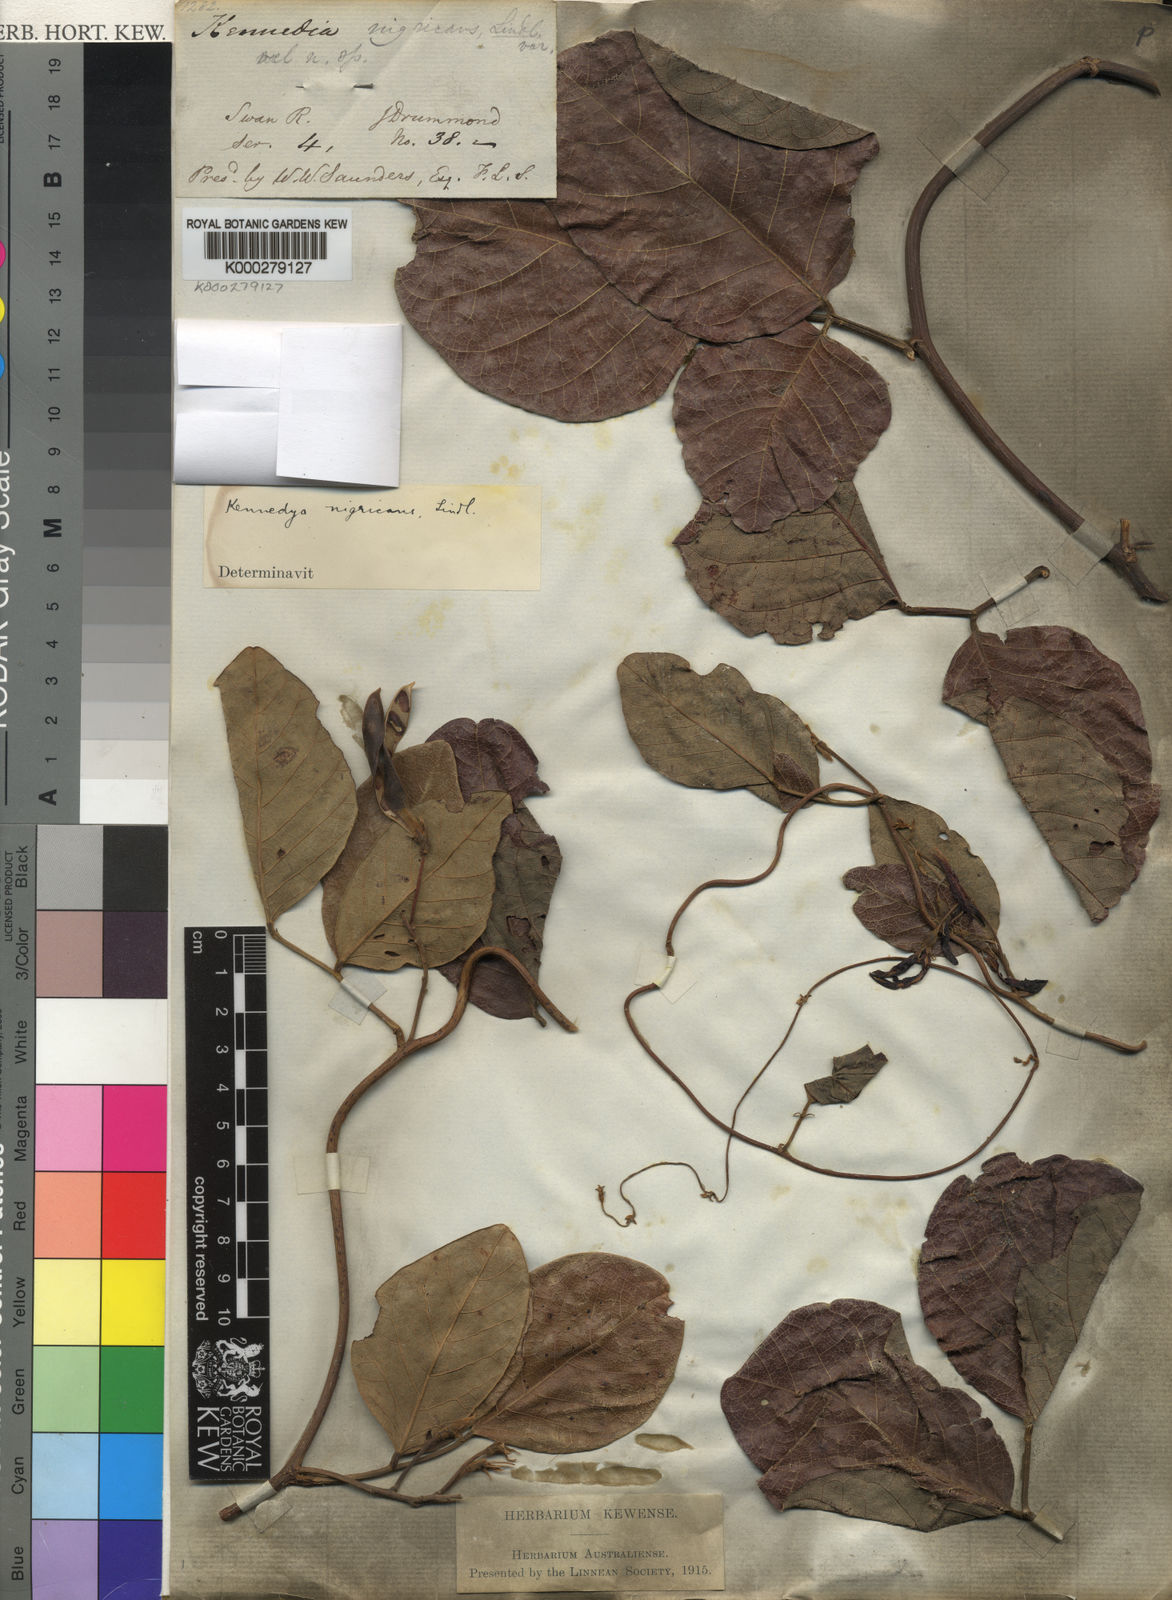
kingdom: Plantae
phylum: Tracheophyta
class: Magnoliopsida
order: Fabales
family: Fabaceae
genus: Kennedia
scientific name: Kennedia nigricans
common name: Black-bean
